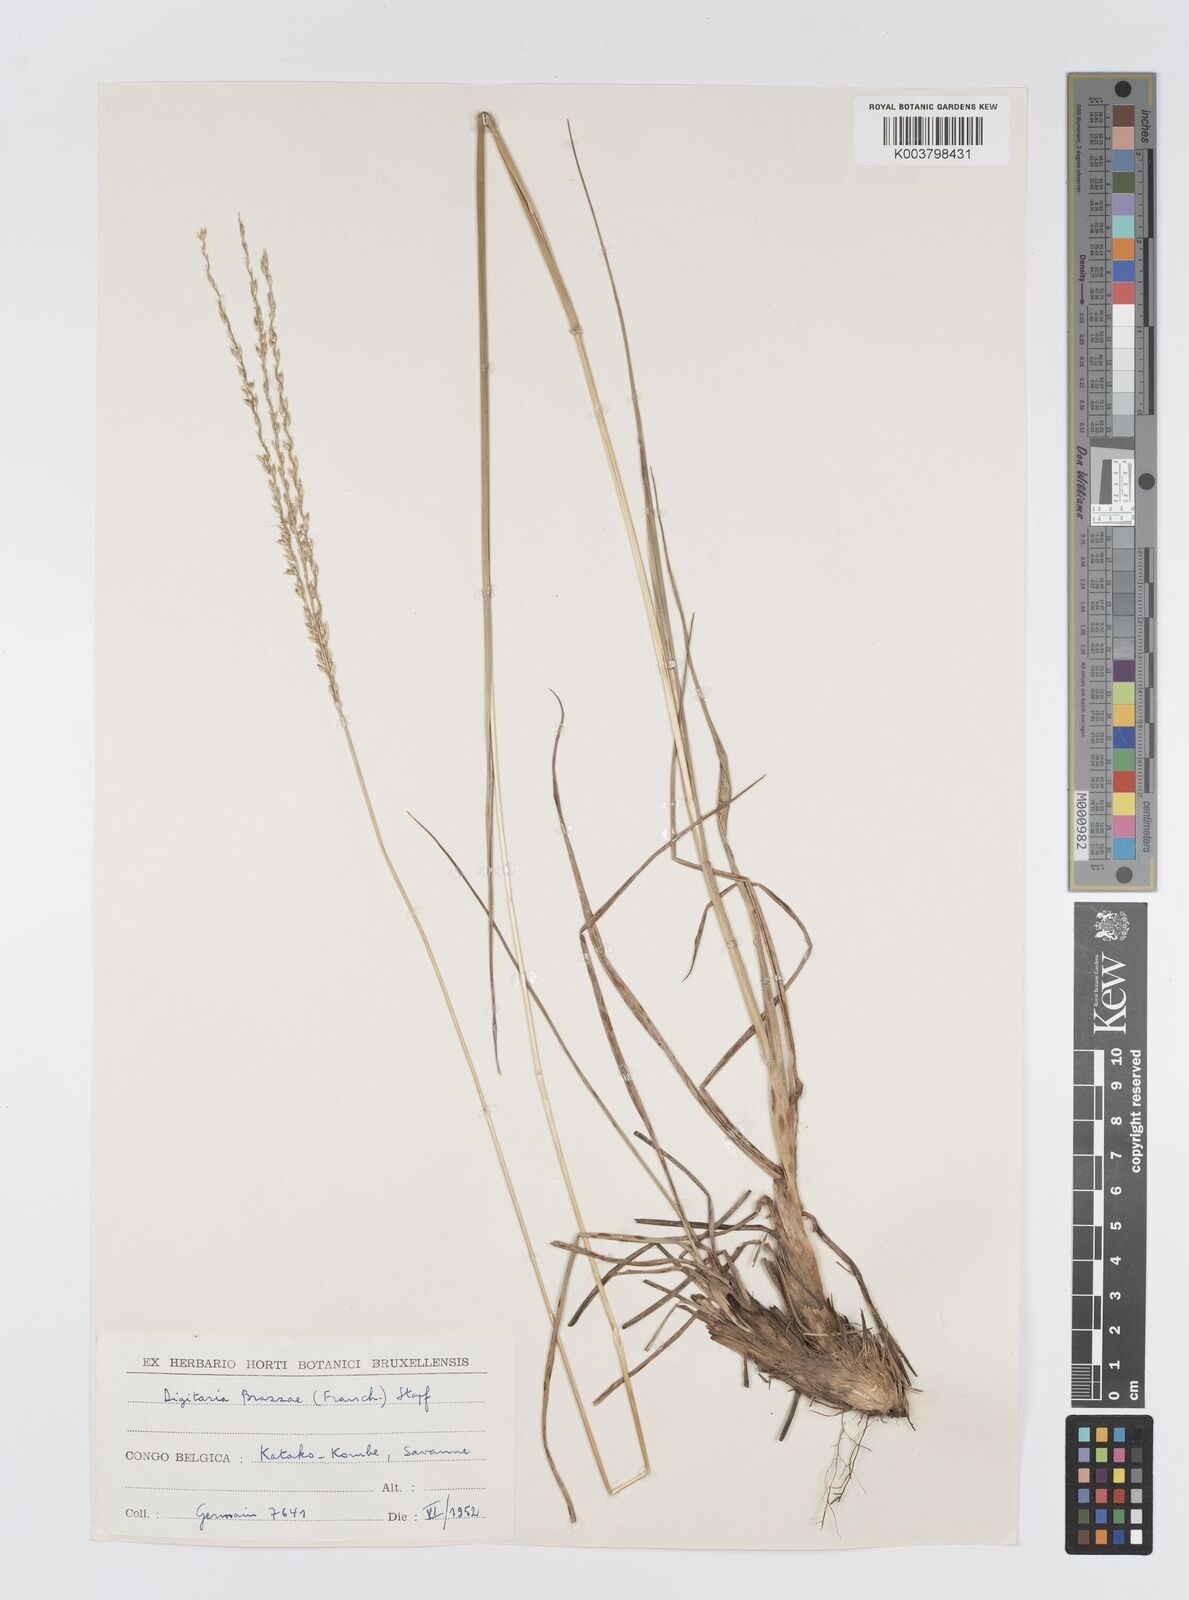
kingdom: Plantae
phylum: Tracheophyta
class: Liliopsida
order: Poales
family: Poaceae
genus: Digitaria
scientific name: Digitaria brazzae
